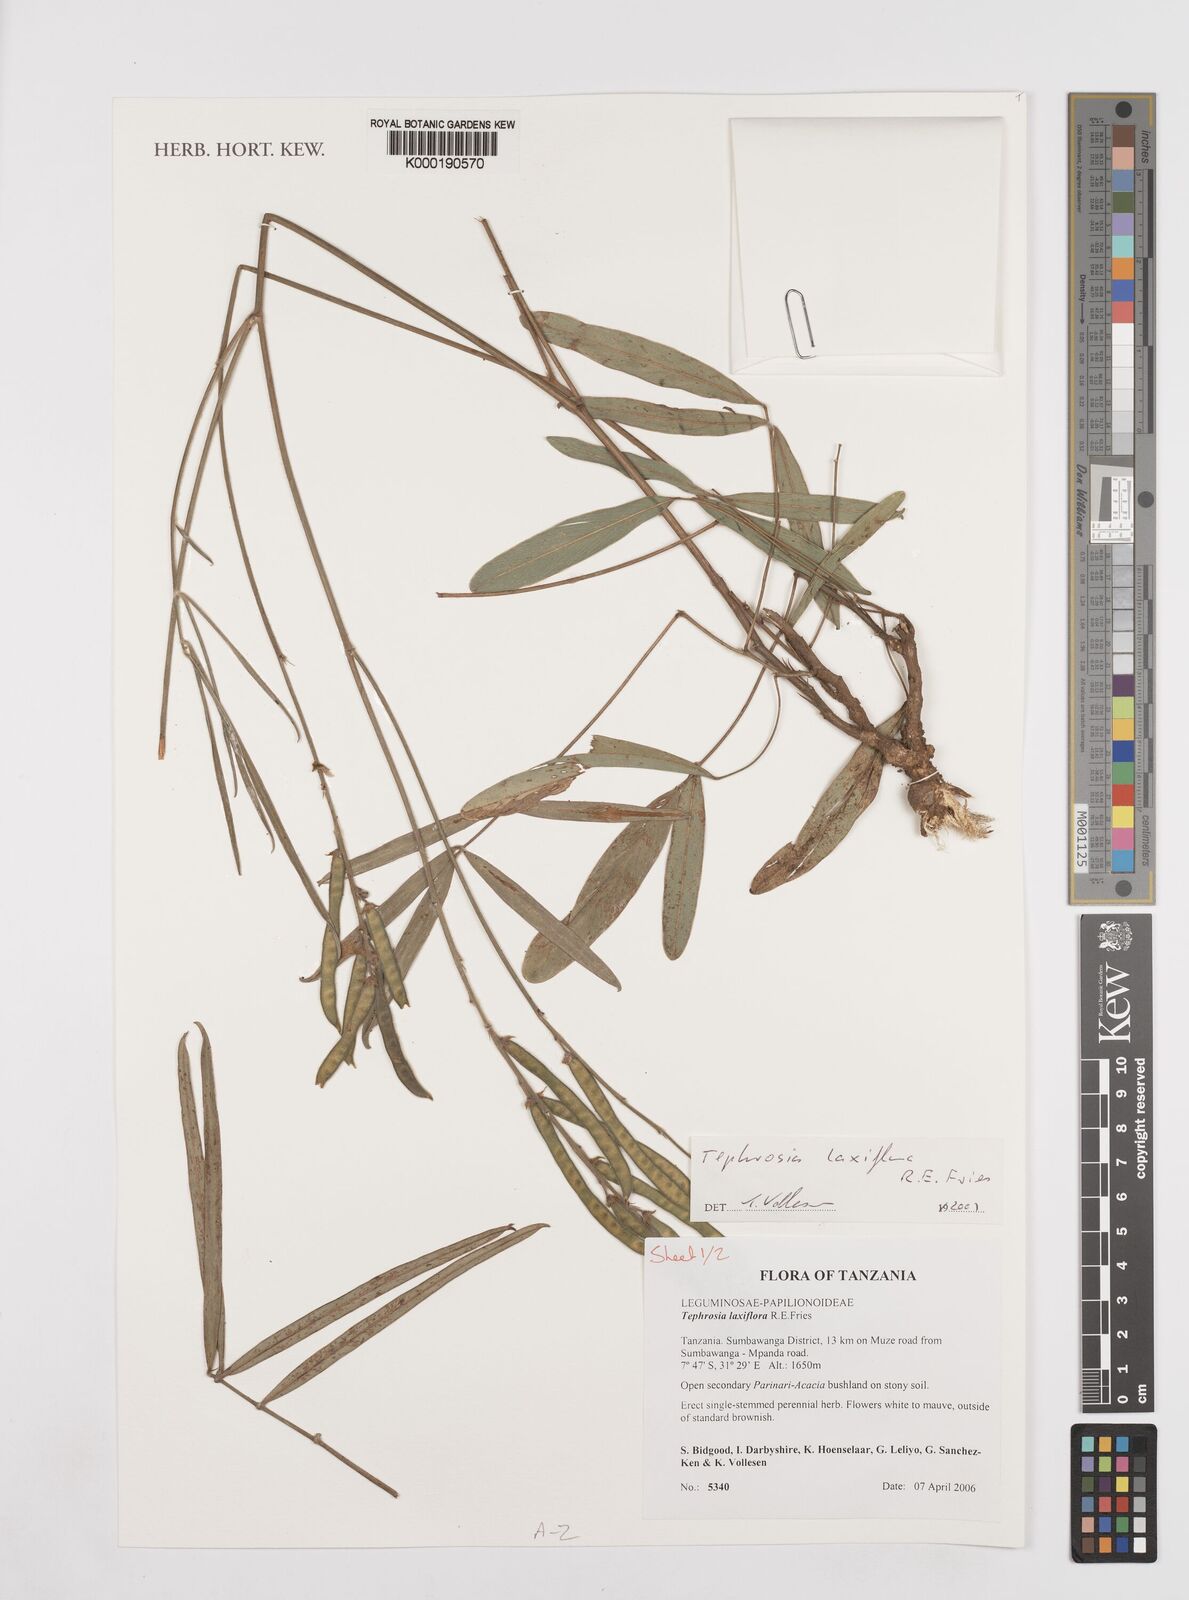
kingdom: Plantae
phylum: Tracheophyta
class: Magnoliopsida
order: Fabales
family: Fabaceae
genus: Tephrosia
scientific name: Tephrosia
